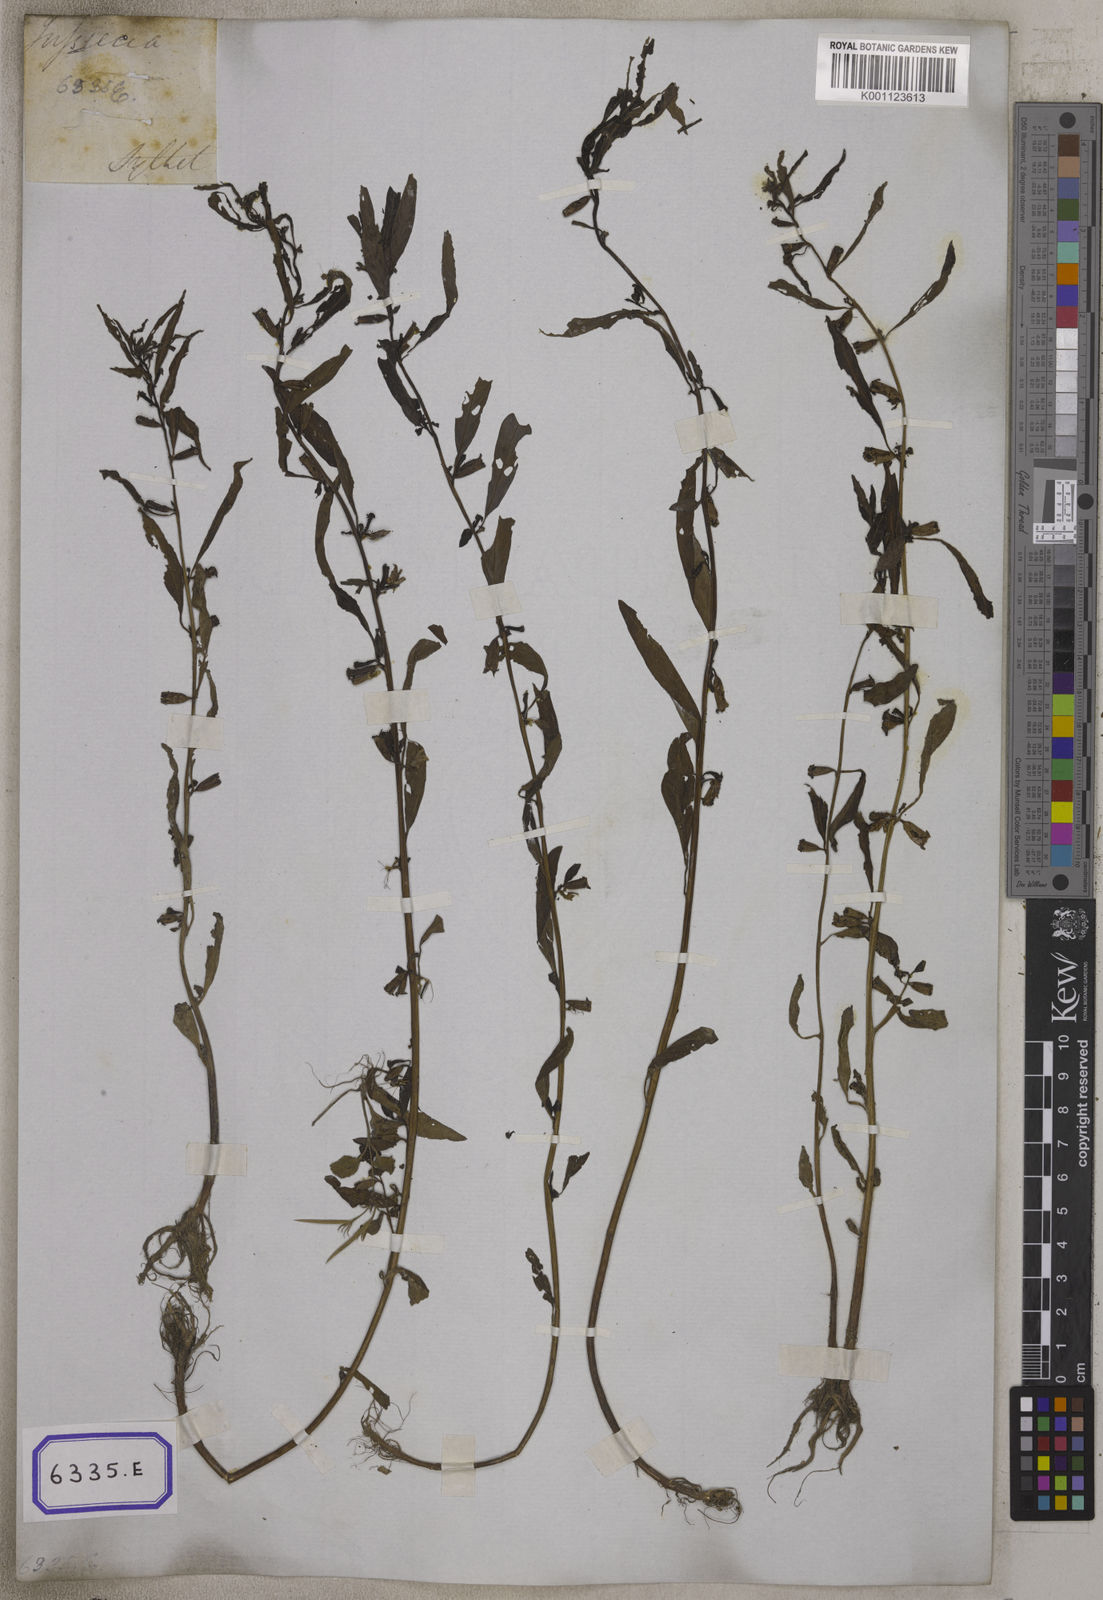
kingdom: Plantae
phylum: Tracheophyta
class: Magnoliopsida
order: Myrtales
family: Onagraceae
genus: Ludwigia
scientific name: Ludwigia perennis
